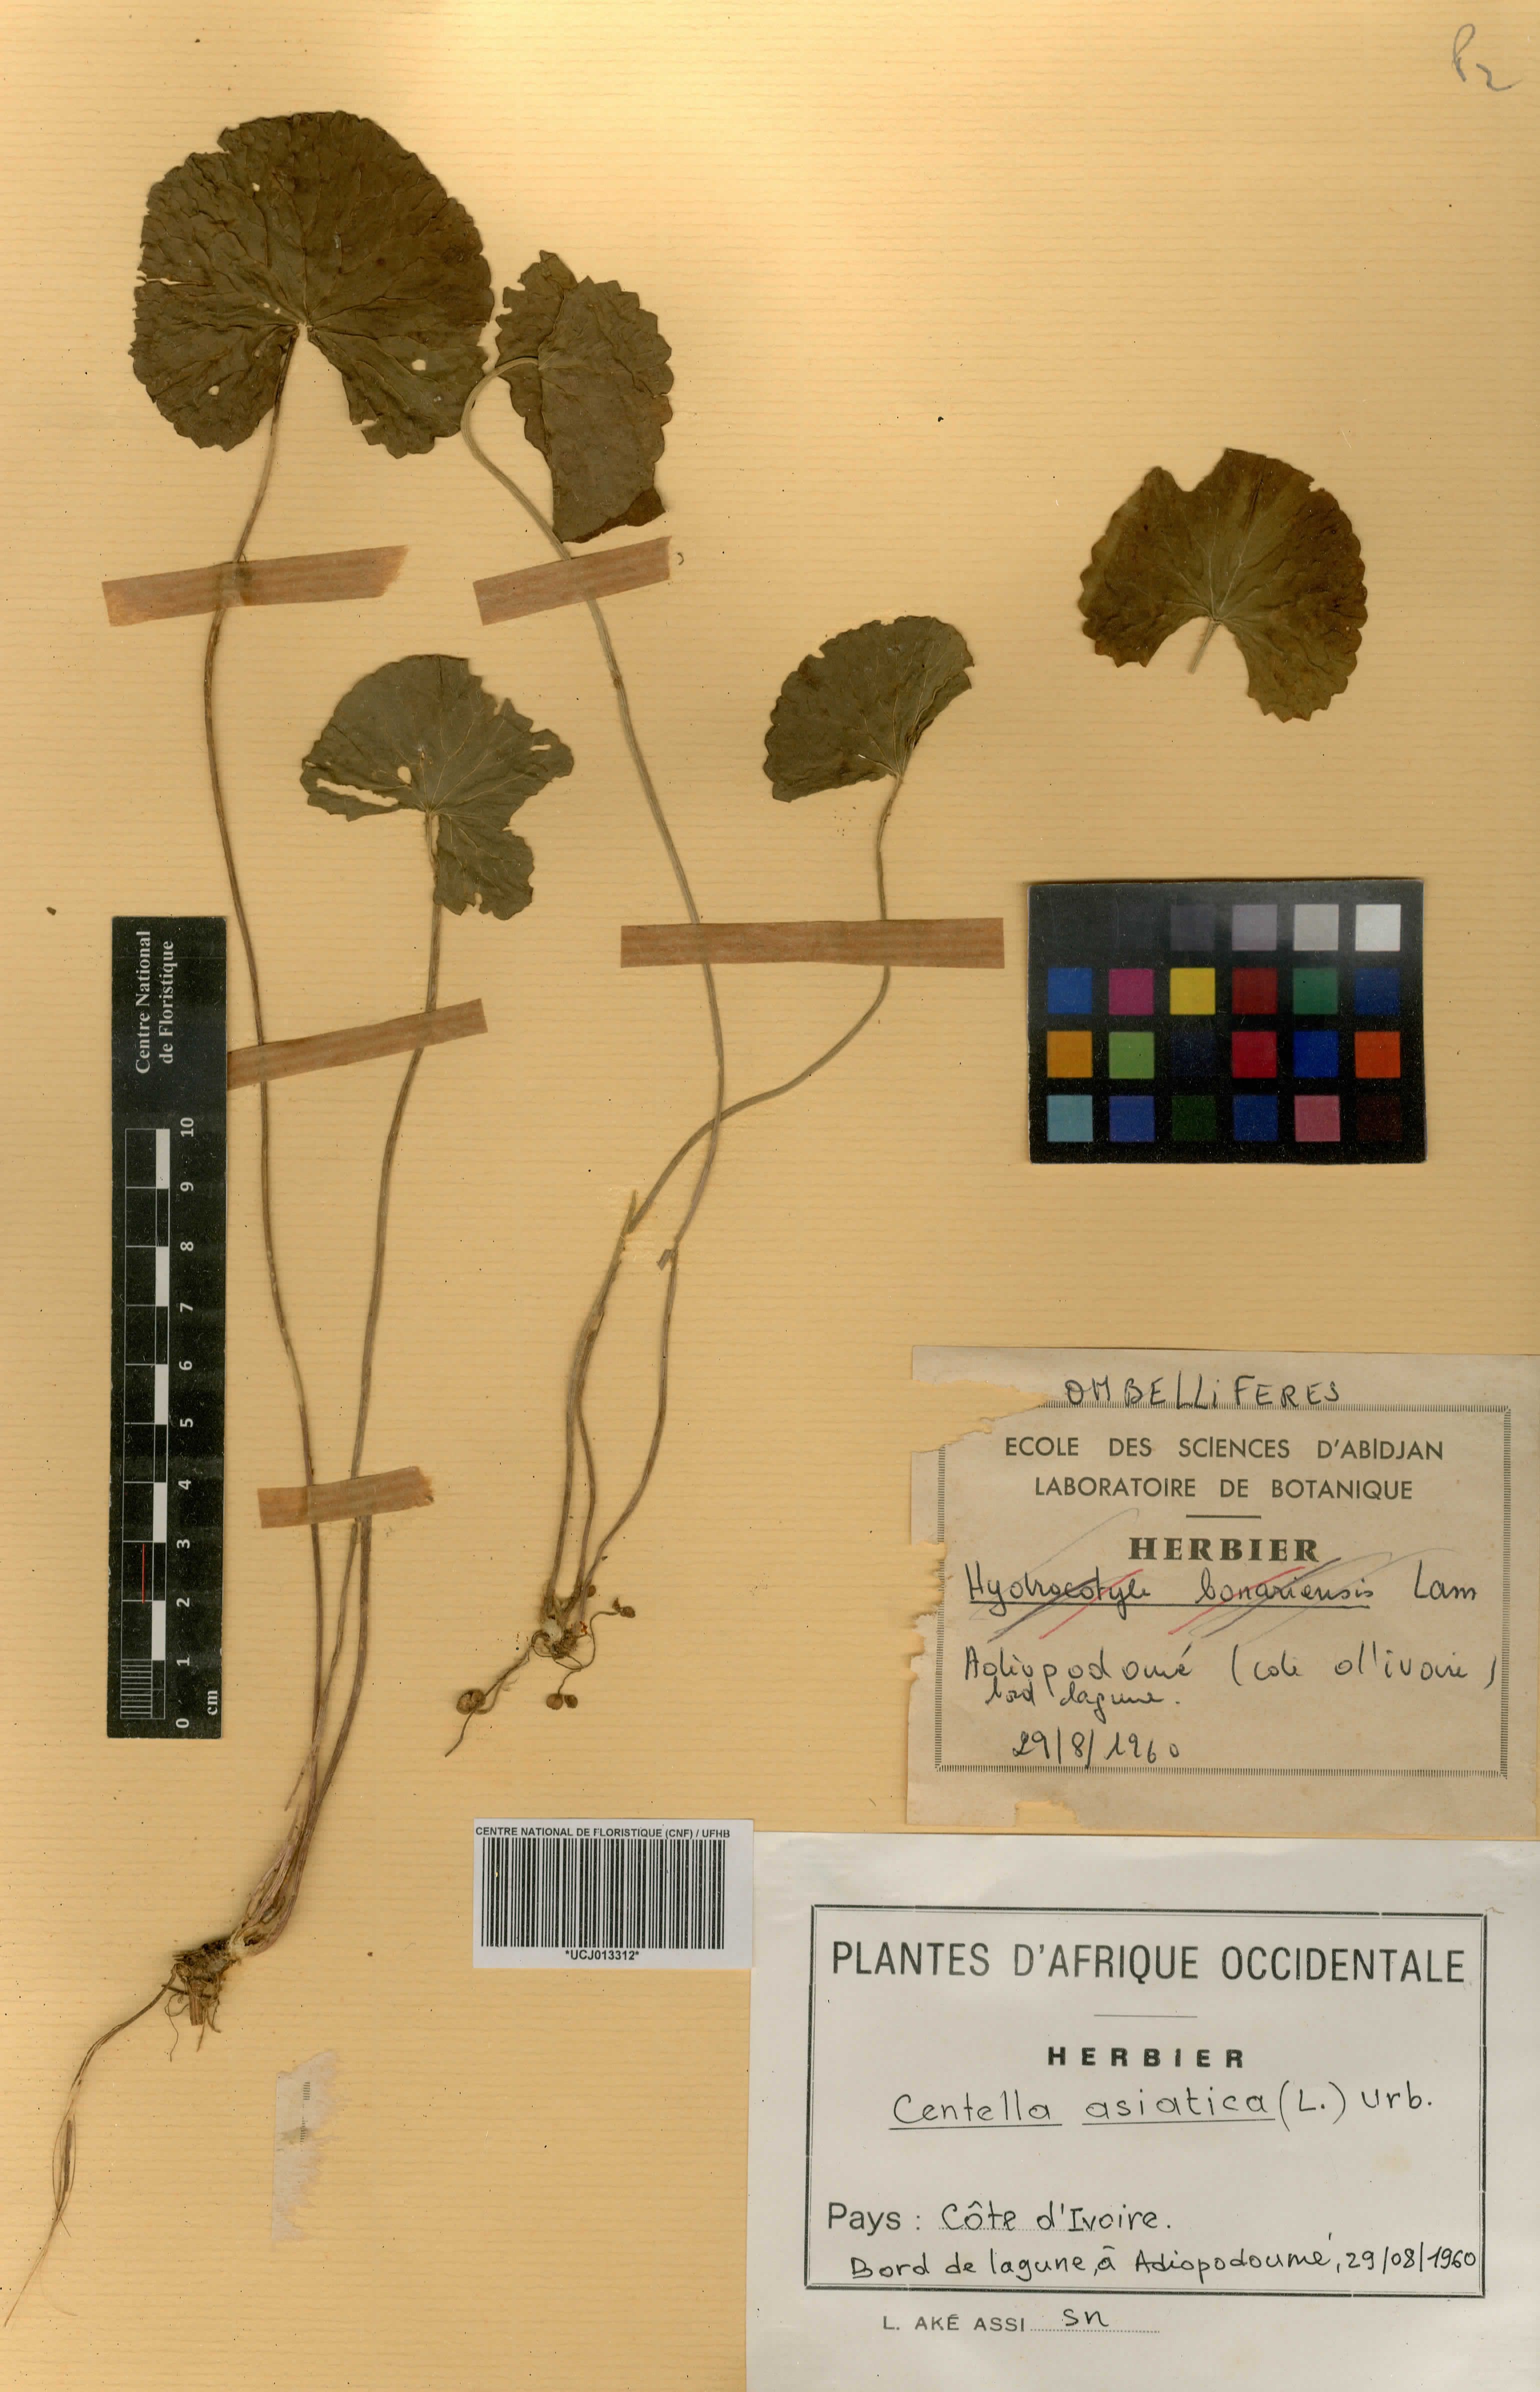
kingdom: Plantae
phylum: Tracheophyta
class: Magnoliopsida
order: Apiales
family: Apiaceae
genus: Centella
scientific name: Centella asiatica
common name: Spadeleaf
